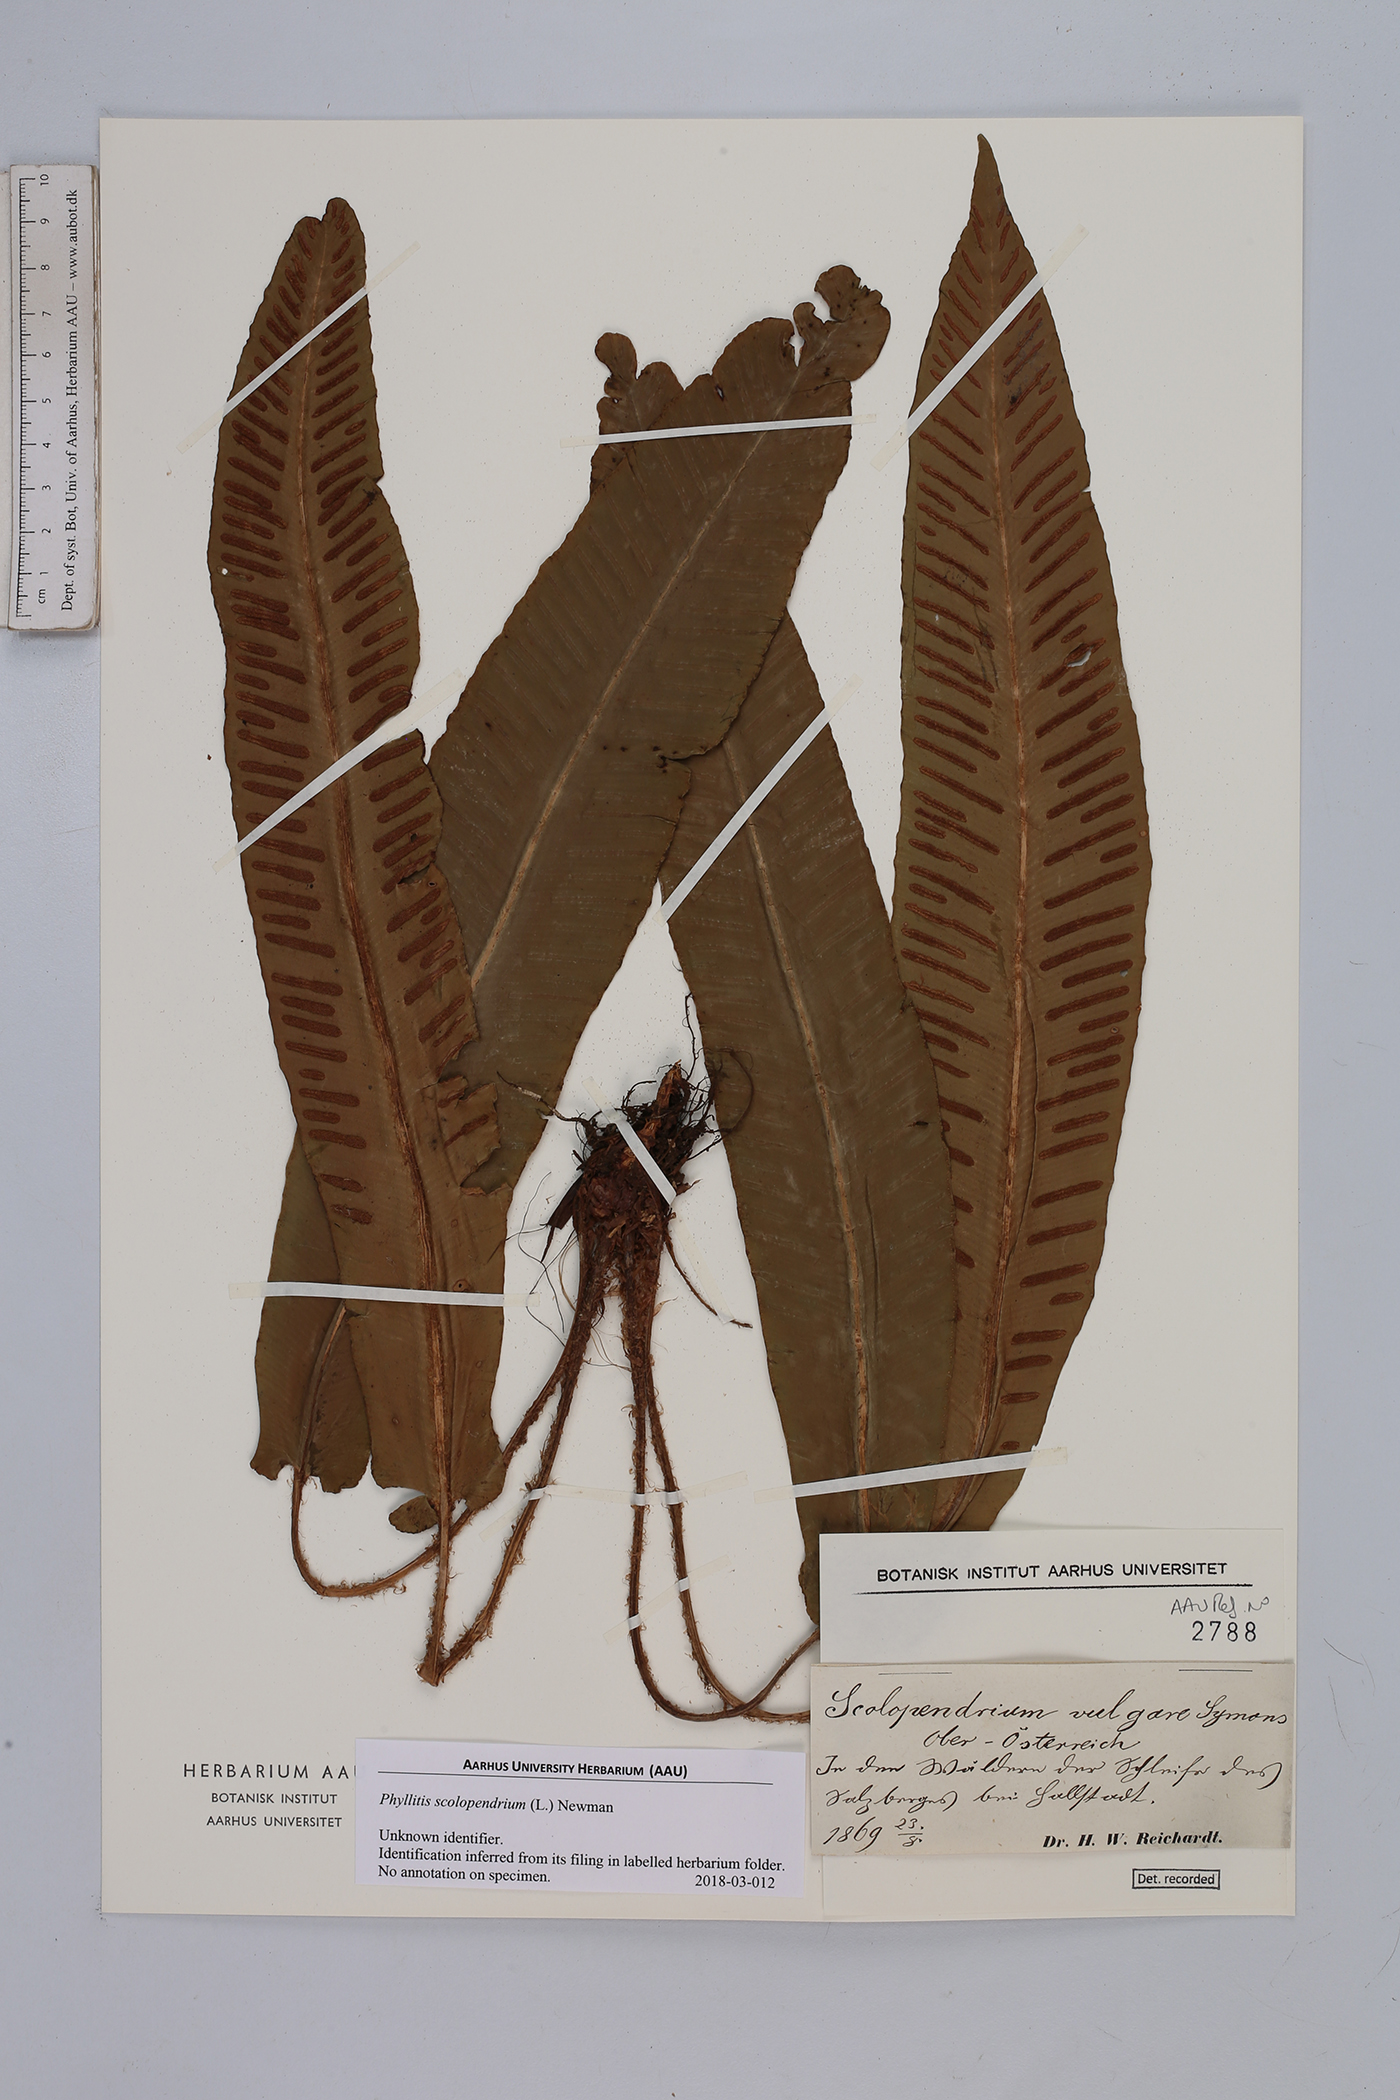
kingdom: Plantae
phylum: Tracheophyta
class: Polypodiopsida
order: Polypodiales
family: Aspleniaceae
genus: Asplenium
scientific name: Asplenium scolopendrium
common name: Hart's-tongue fern
